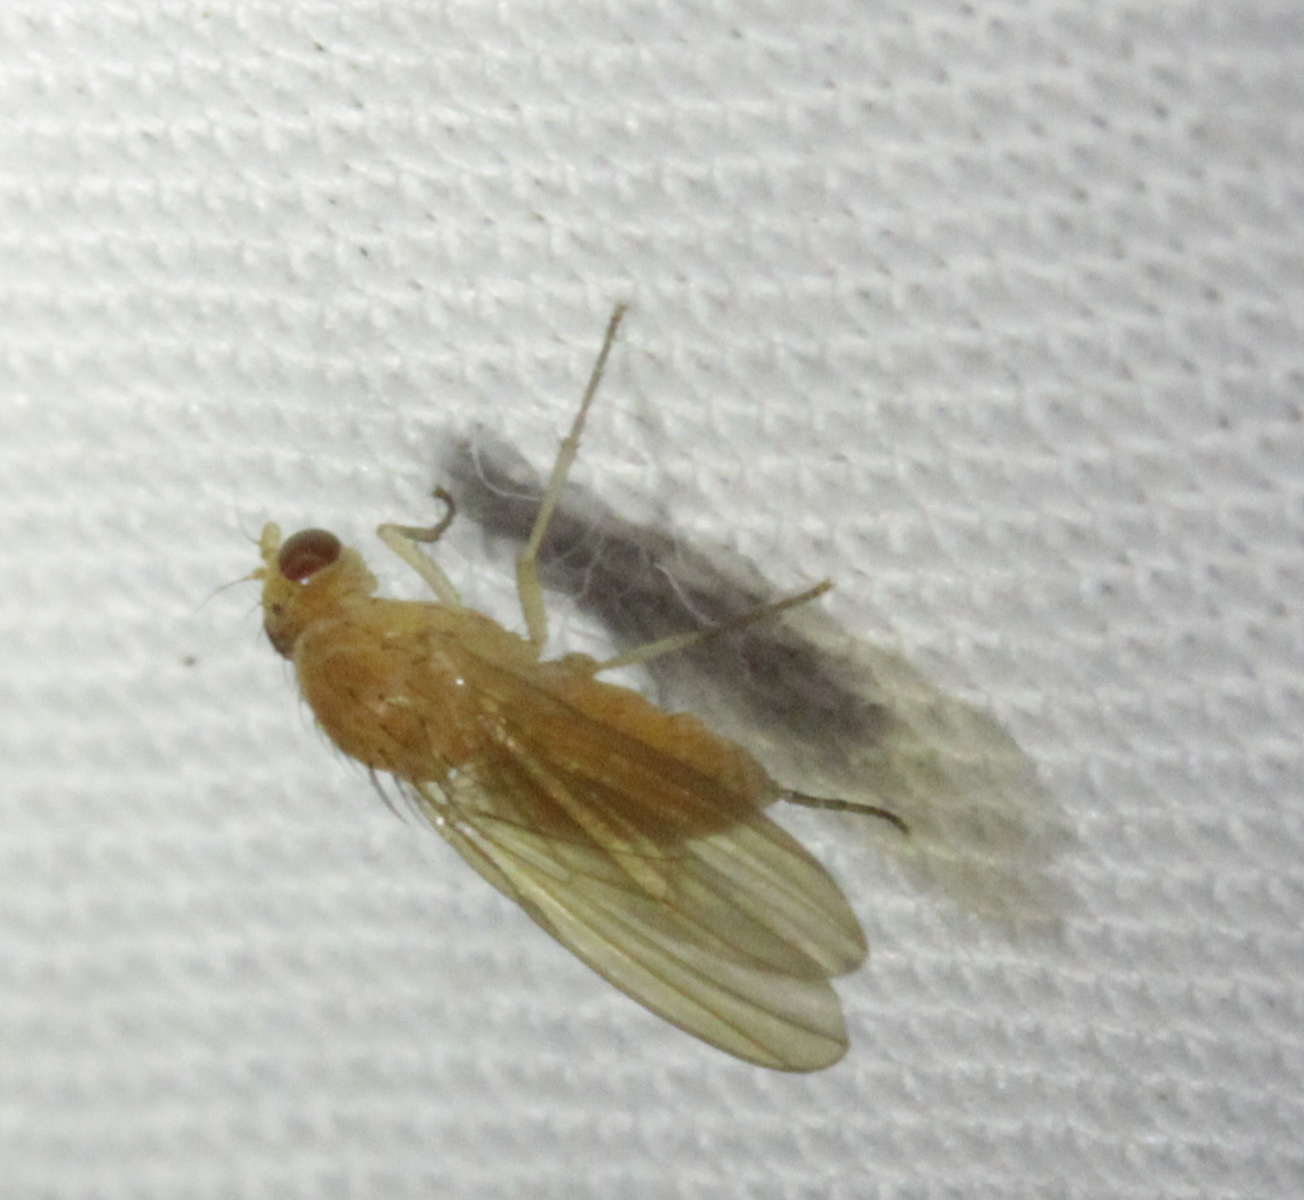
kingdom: Animalia
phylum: Arthropoda
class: Insecta
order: Diptera
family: Lauxaniidae
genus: Meiosimyza
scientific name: Meiosimyza
